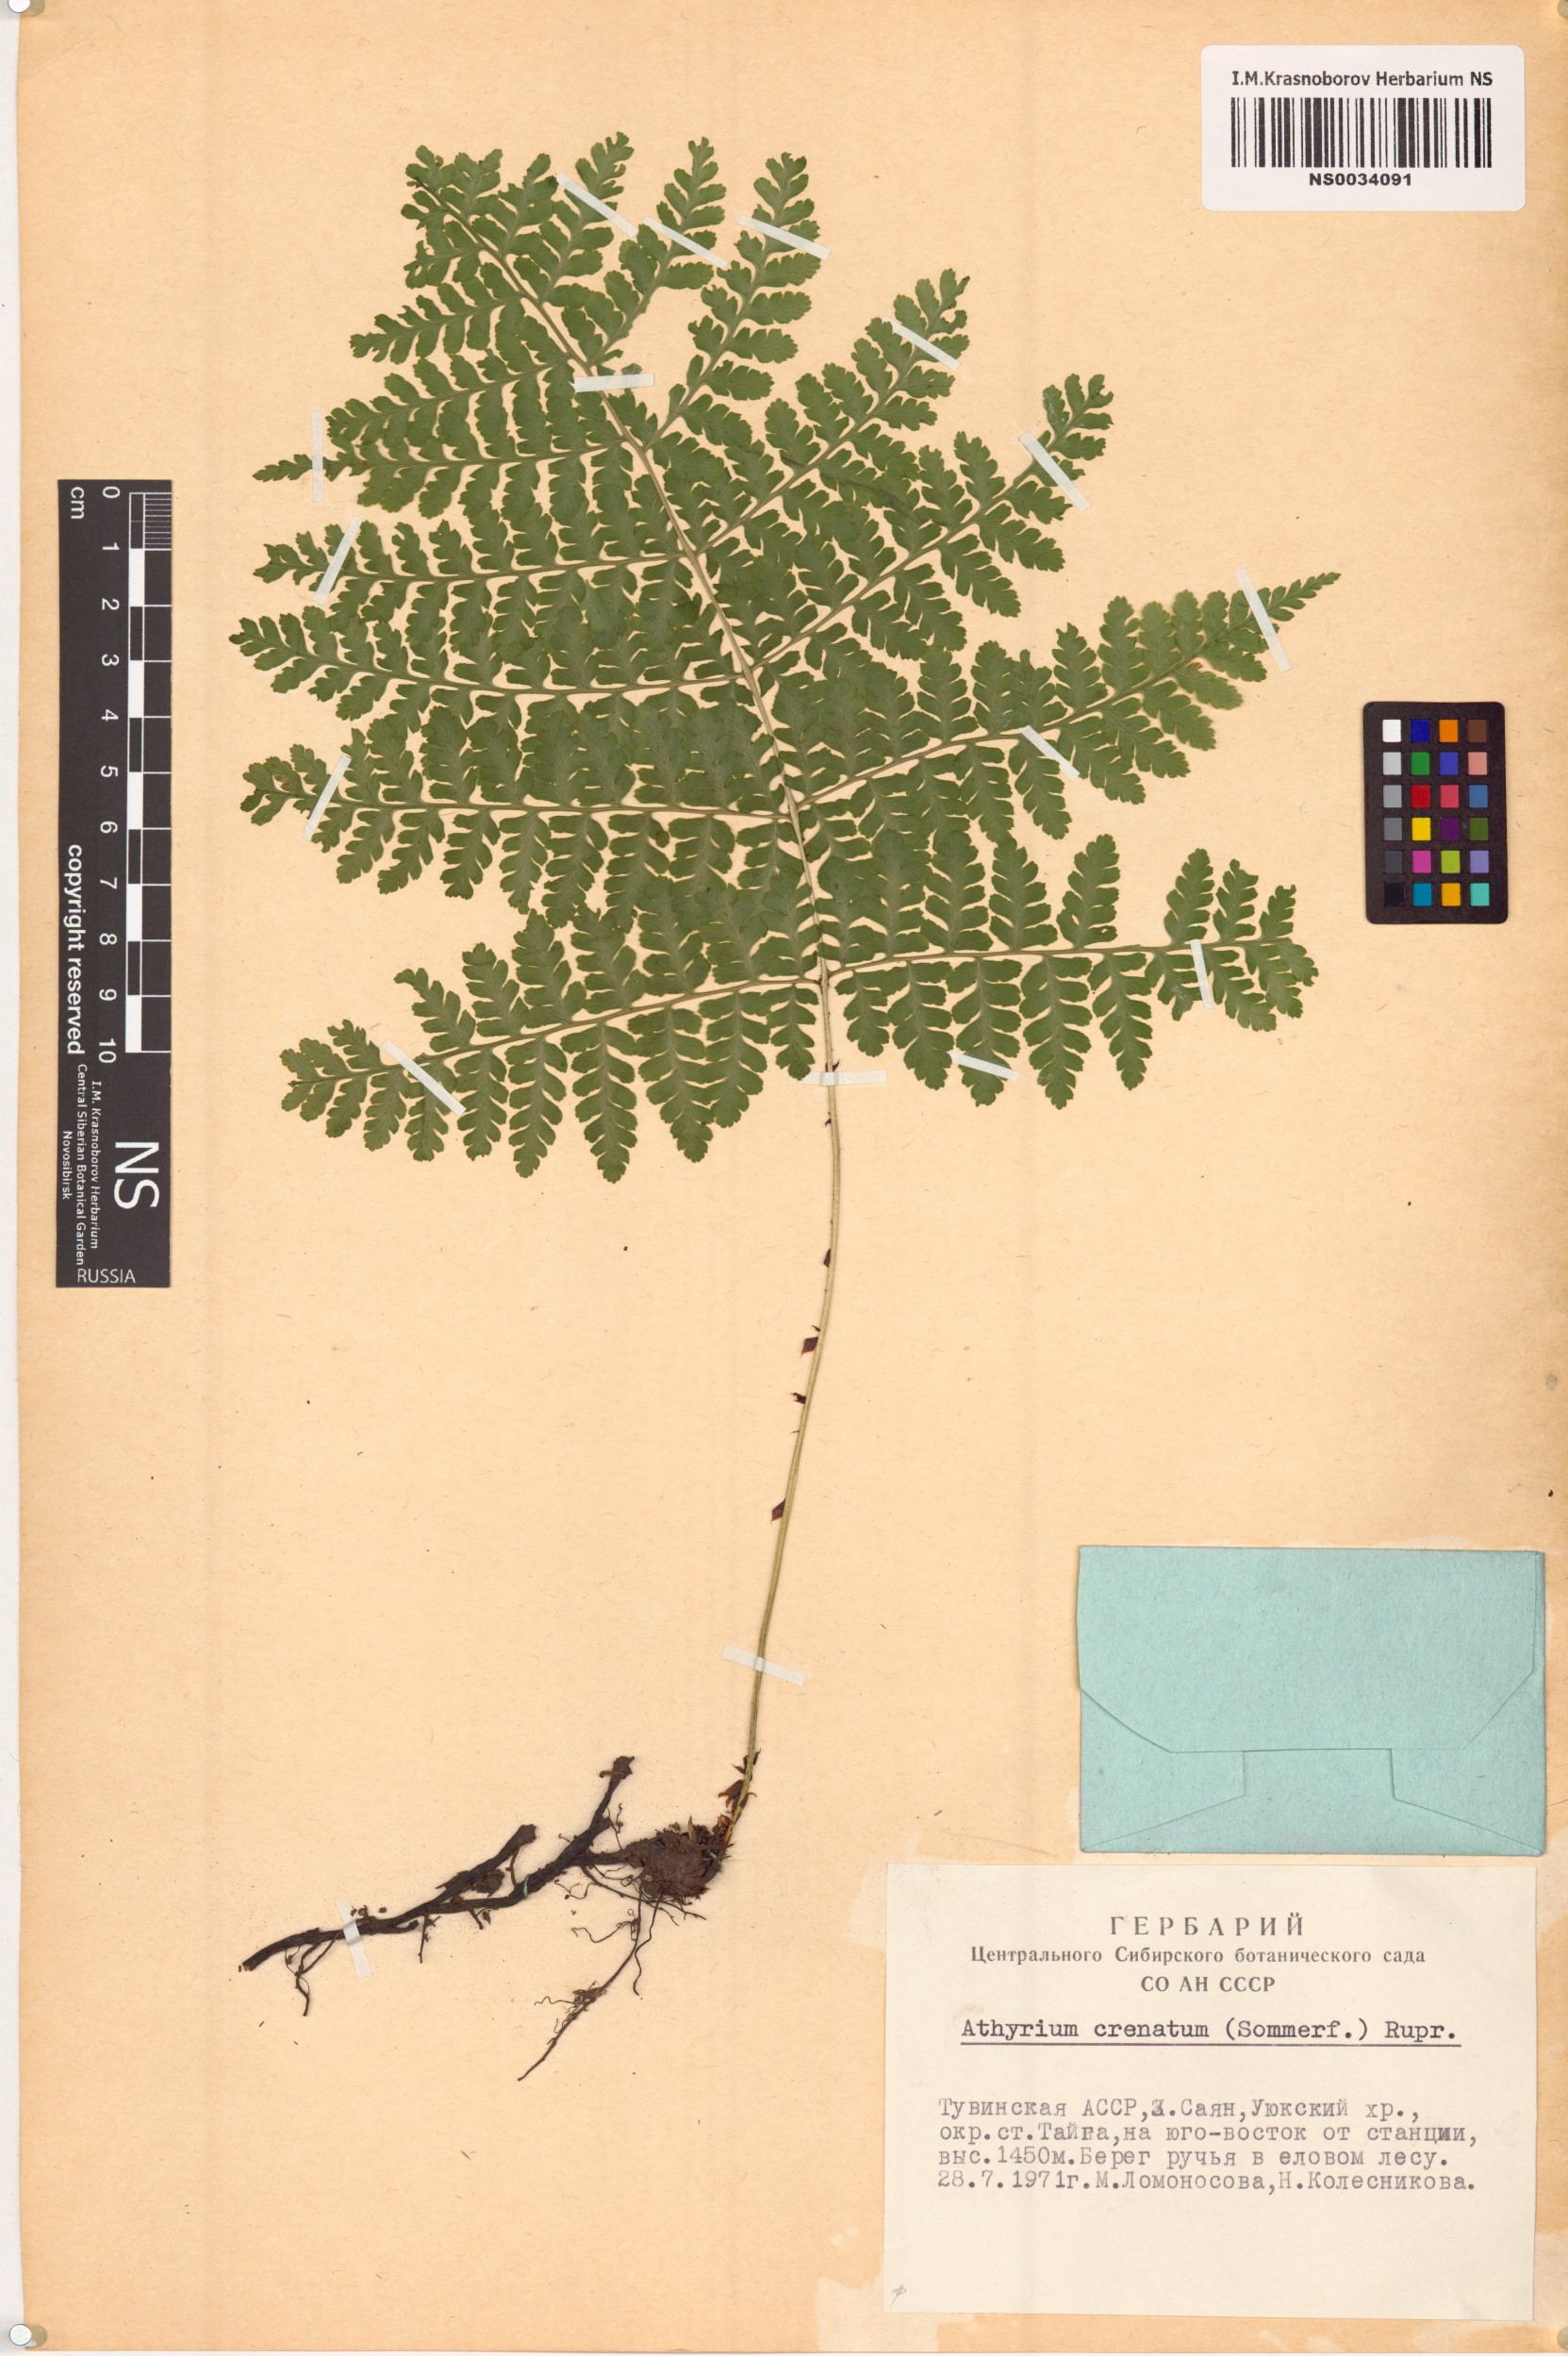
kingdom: Plantae
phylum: Tracheophyta
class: Polypodiopsida
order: Polypodiales
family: Athyriaceae
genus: Diplazium
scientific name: Diplazium sibiricum
